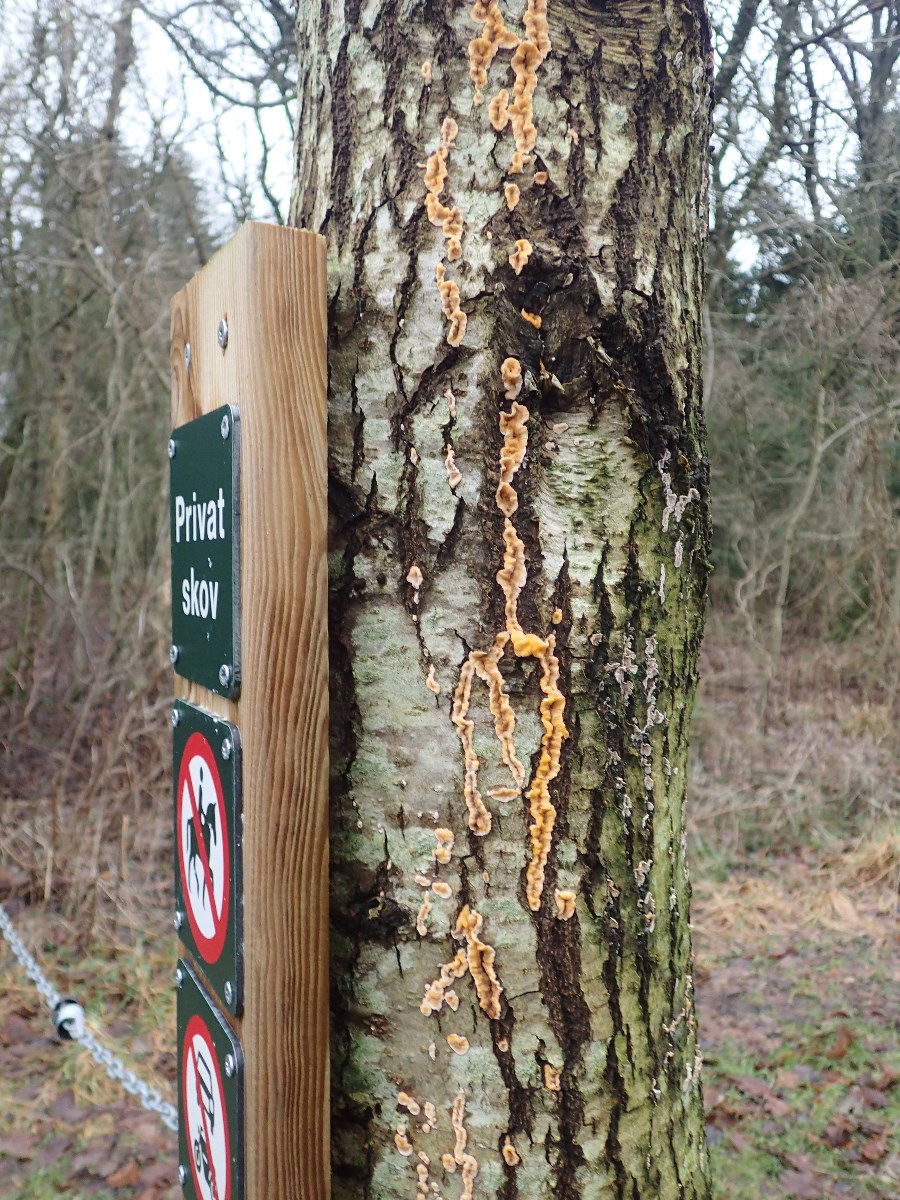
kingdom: Fungi
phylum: Basidiomycota
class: Agaricomycetes
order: Russulales
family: Stereaceae
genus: Stereum
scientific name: Stereum hirsutum
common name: håret lædersvamp
